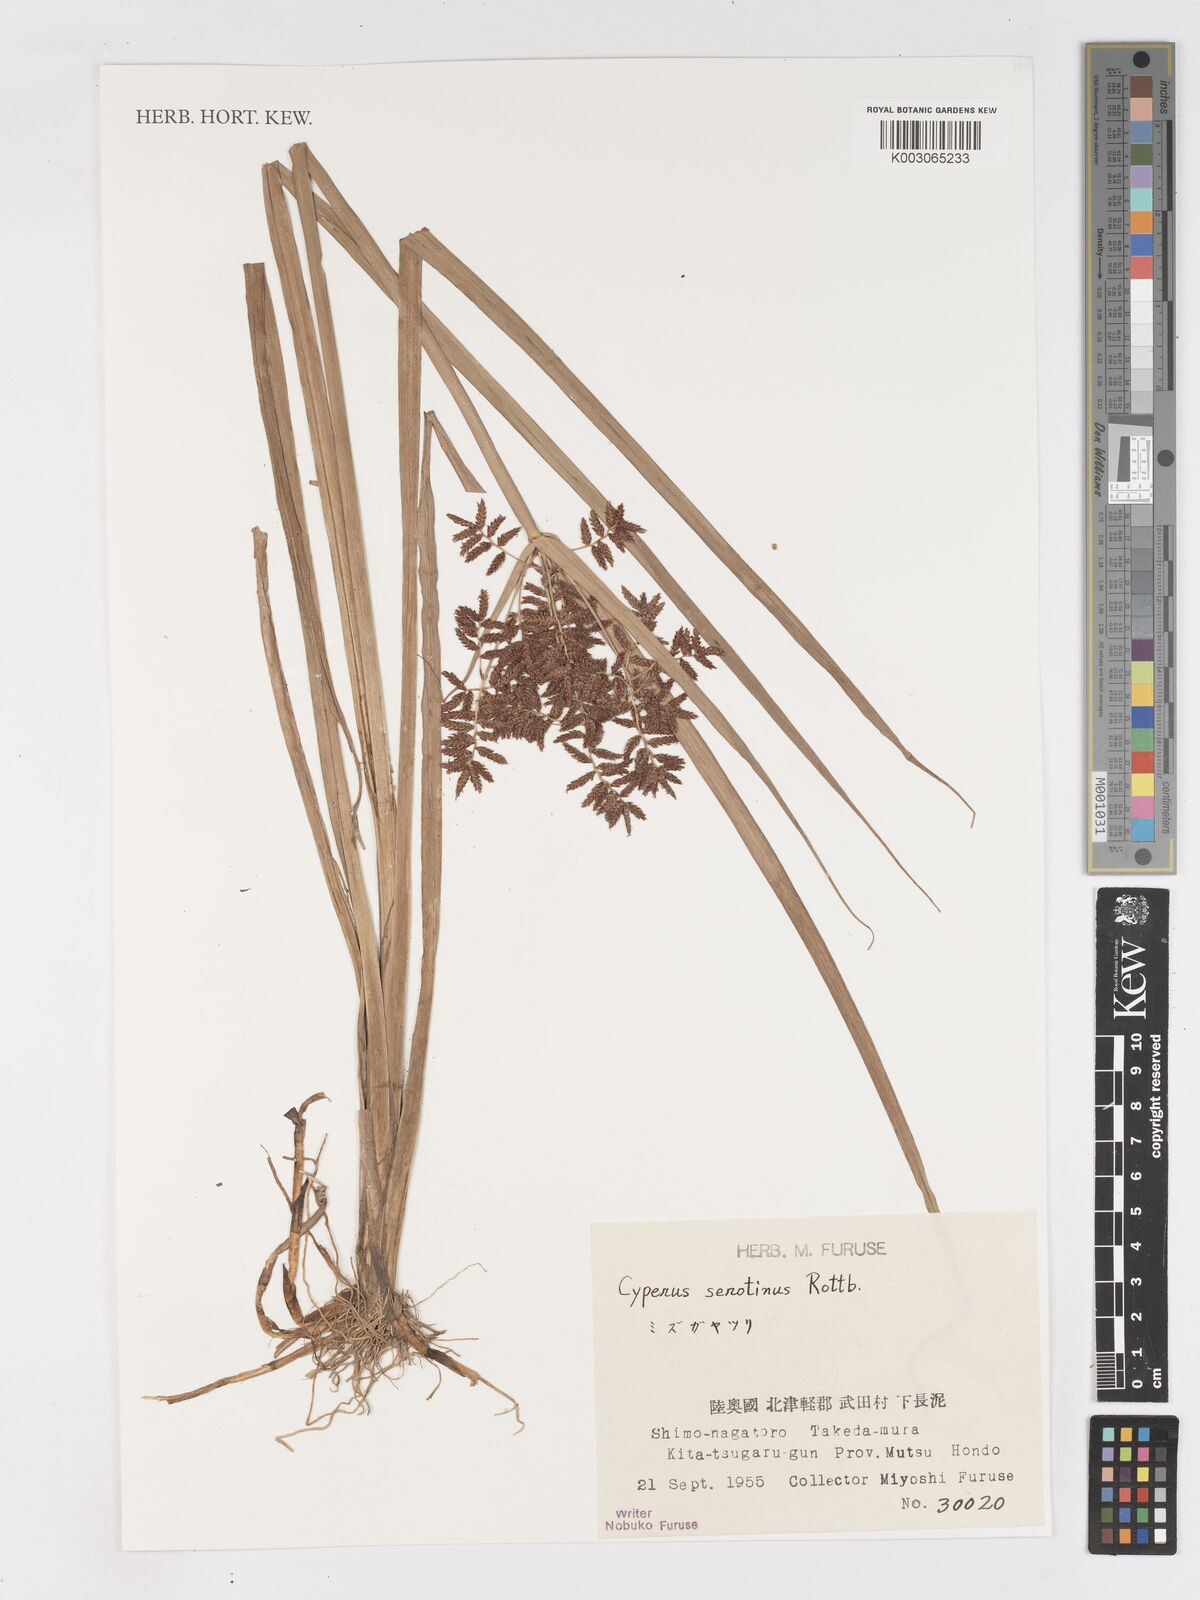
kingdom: Plantae
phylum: Tracheophyta
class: Liliopsida
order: Poales
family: Cyperaceae
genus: Cyperus
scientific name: Cyperus serotinus
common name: Tidalmarsh flatsedge
